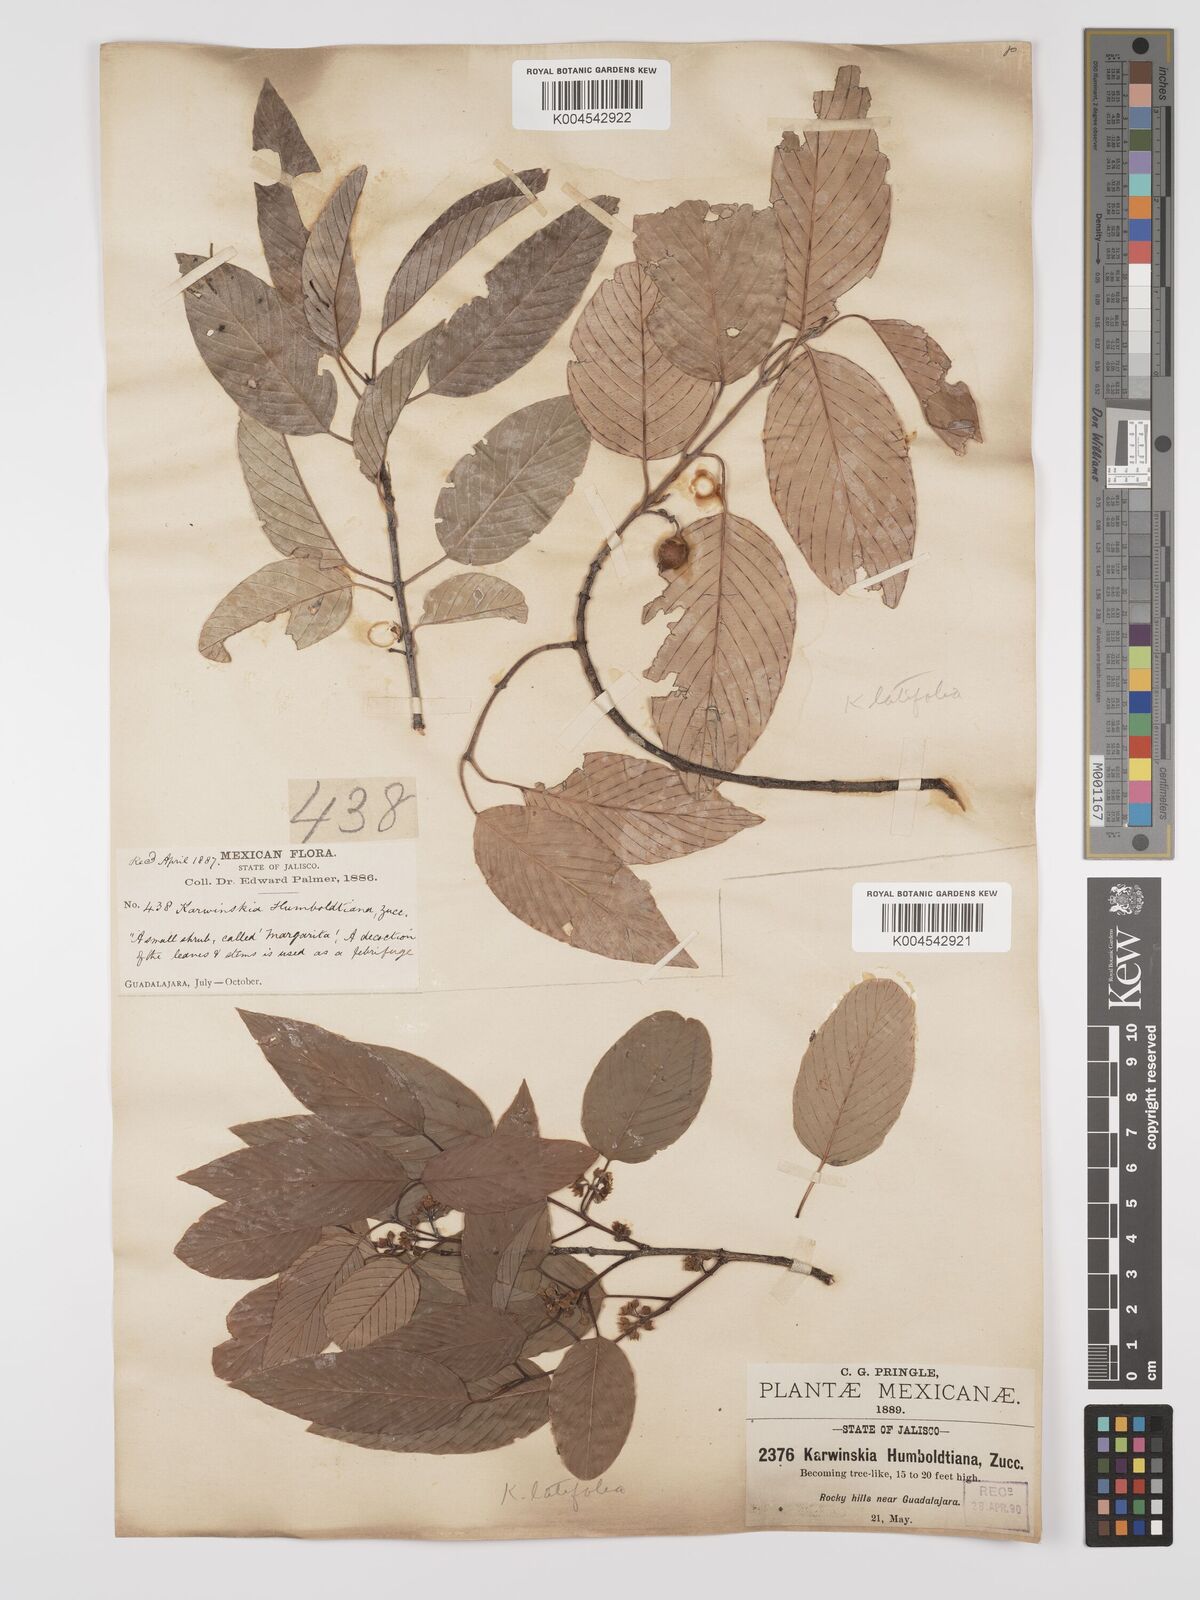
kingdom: Plantae
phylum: Tracheophyta
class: Magnoliopsida
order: Rosales
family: Rhamnaceae
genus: Karwinskia
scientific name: Karwinskia latifolia
